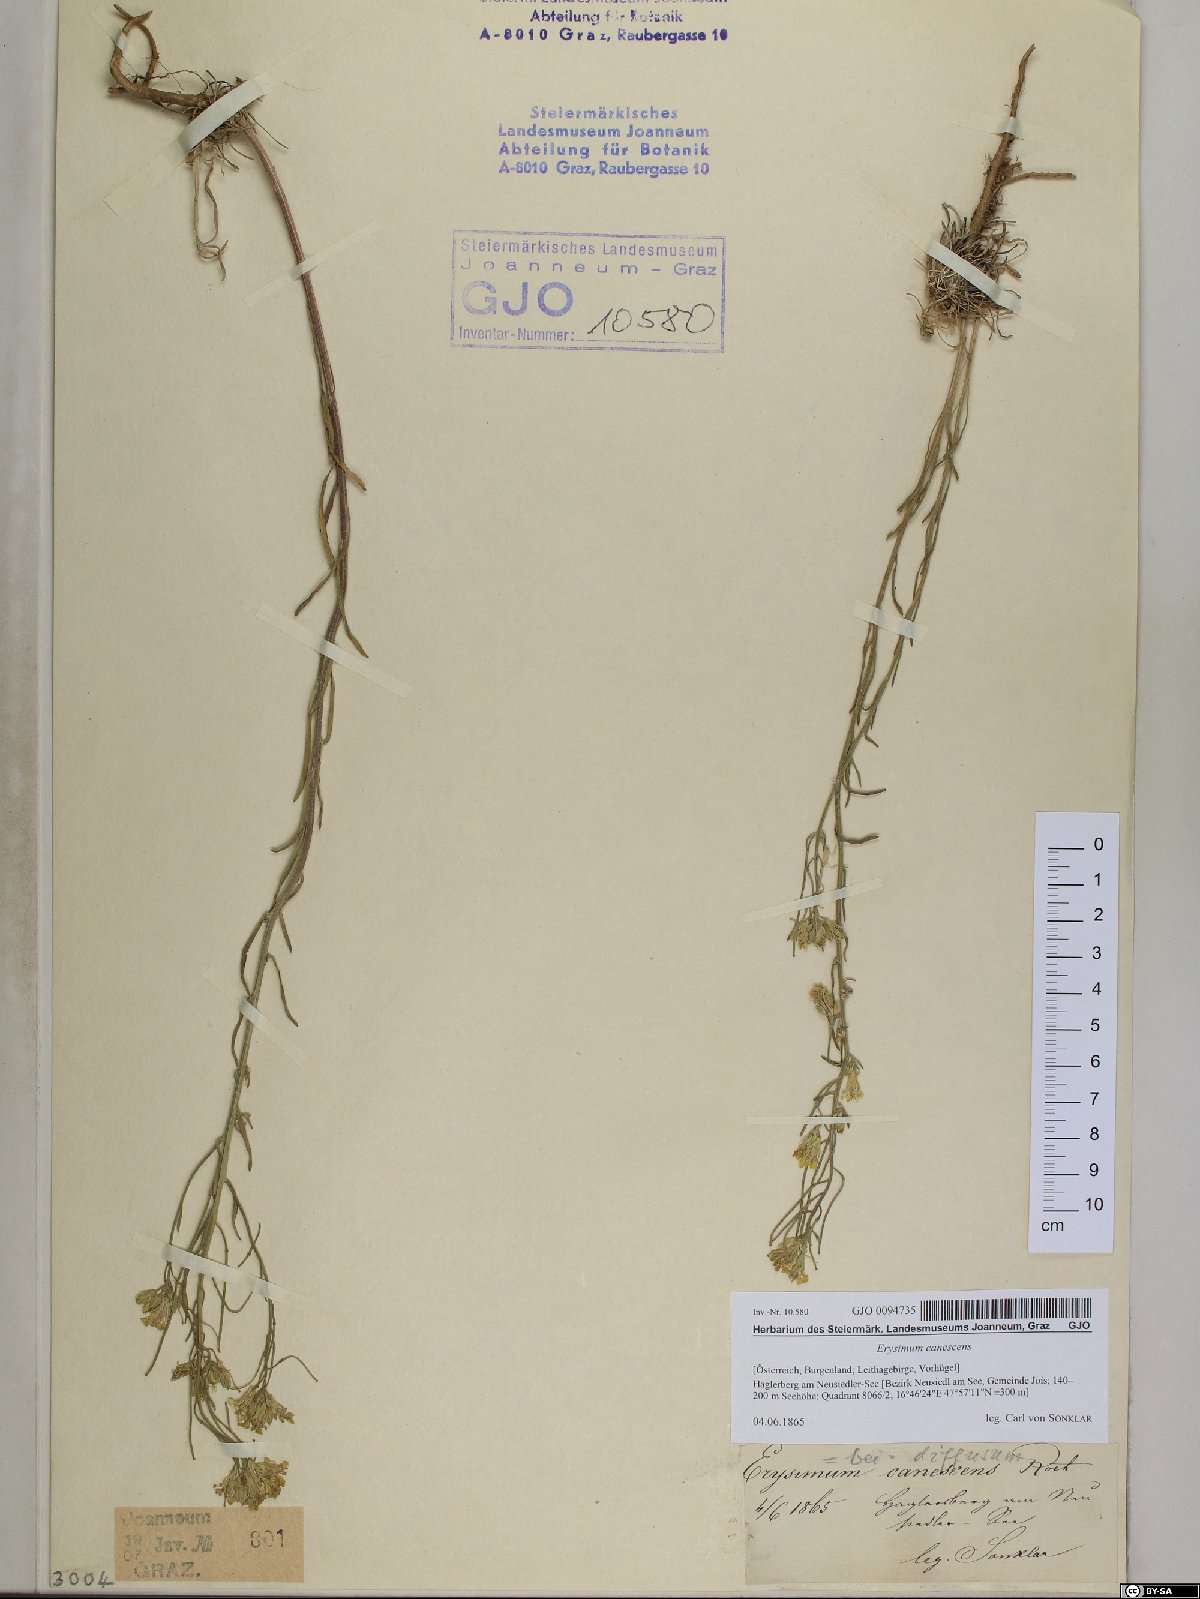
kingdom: Plantae
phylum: Tracheophyta
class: Magnoliopsida
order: Brassicales
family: Brassicaceae
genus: Erysimum
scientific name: Erysimum canescens
